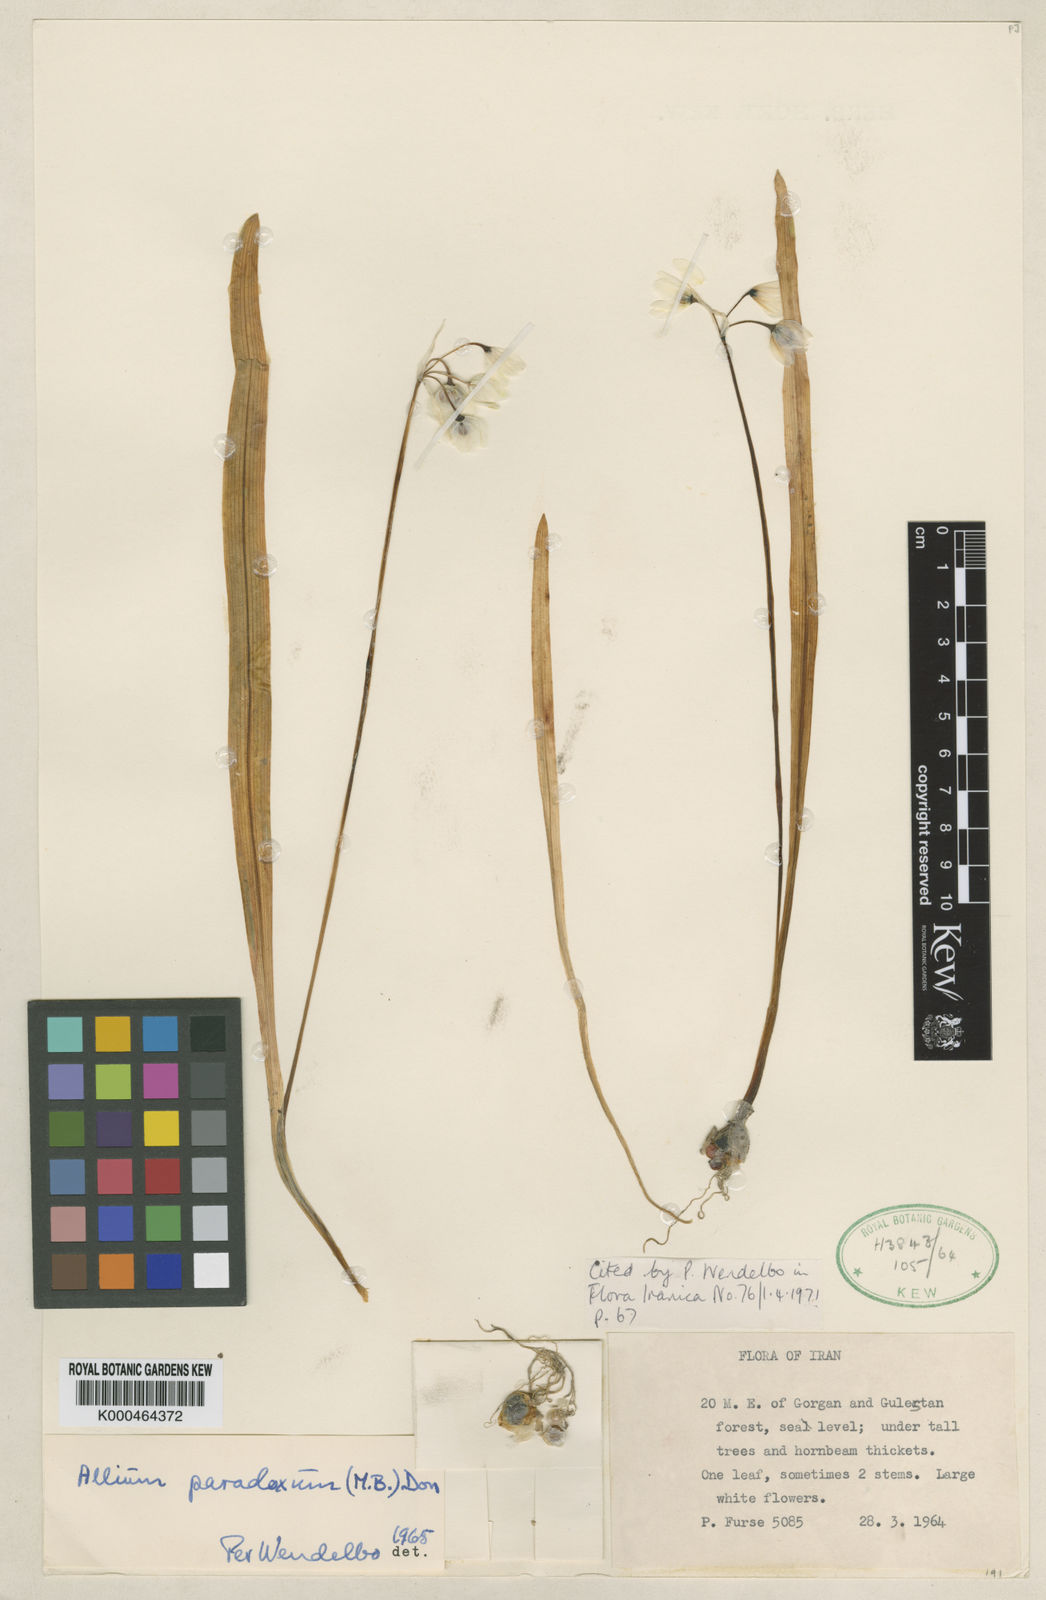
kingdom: Plantae
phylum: Tracheophyta
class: Liliopsida
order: Asparagales
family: Amaryllidaceae
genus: Allium
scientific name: Allium paradoxum
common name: Few-flowered garlic
